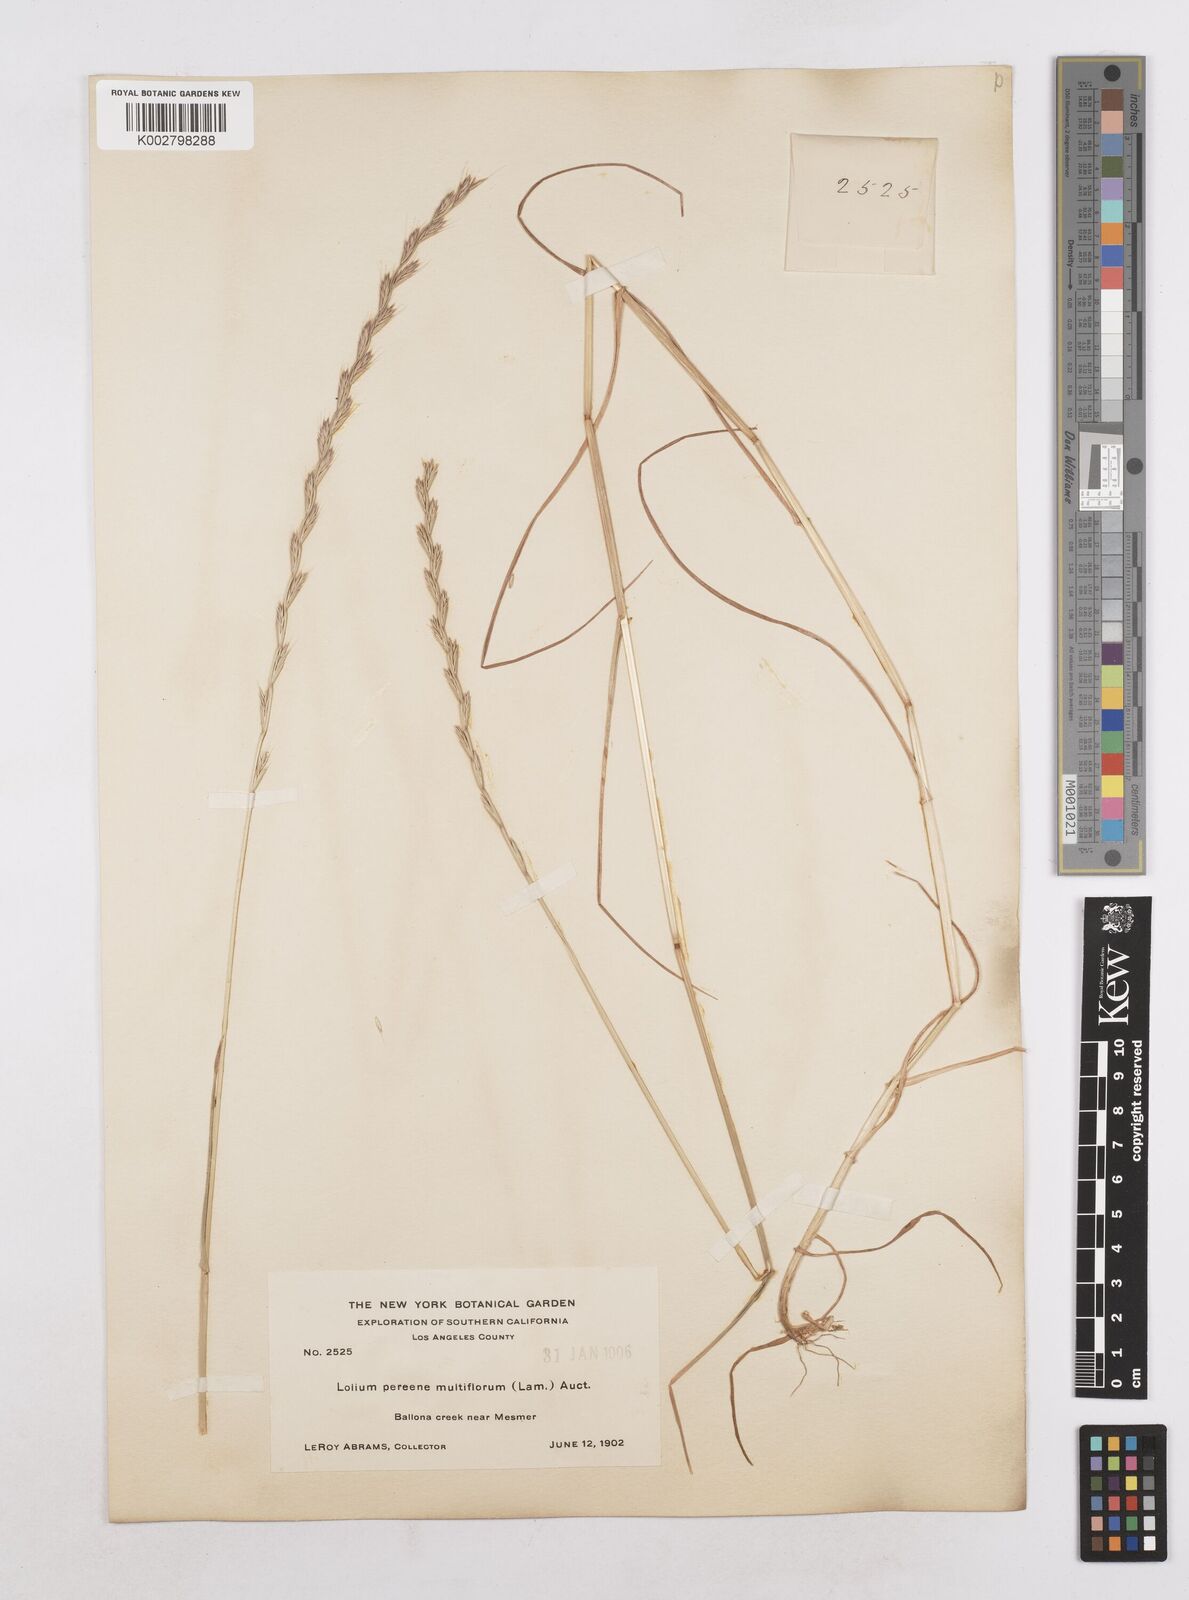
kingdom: Plantae
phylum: Tracheophyta
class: Liliopsida
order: Poales
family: Poaceae
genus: Lolium
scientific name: Lolium multiflorum
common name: Annual ryegrass
